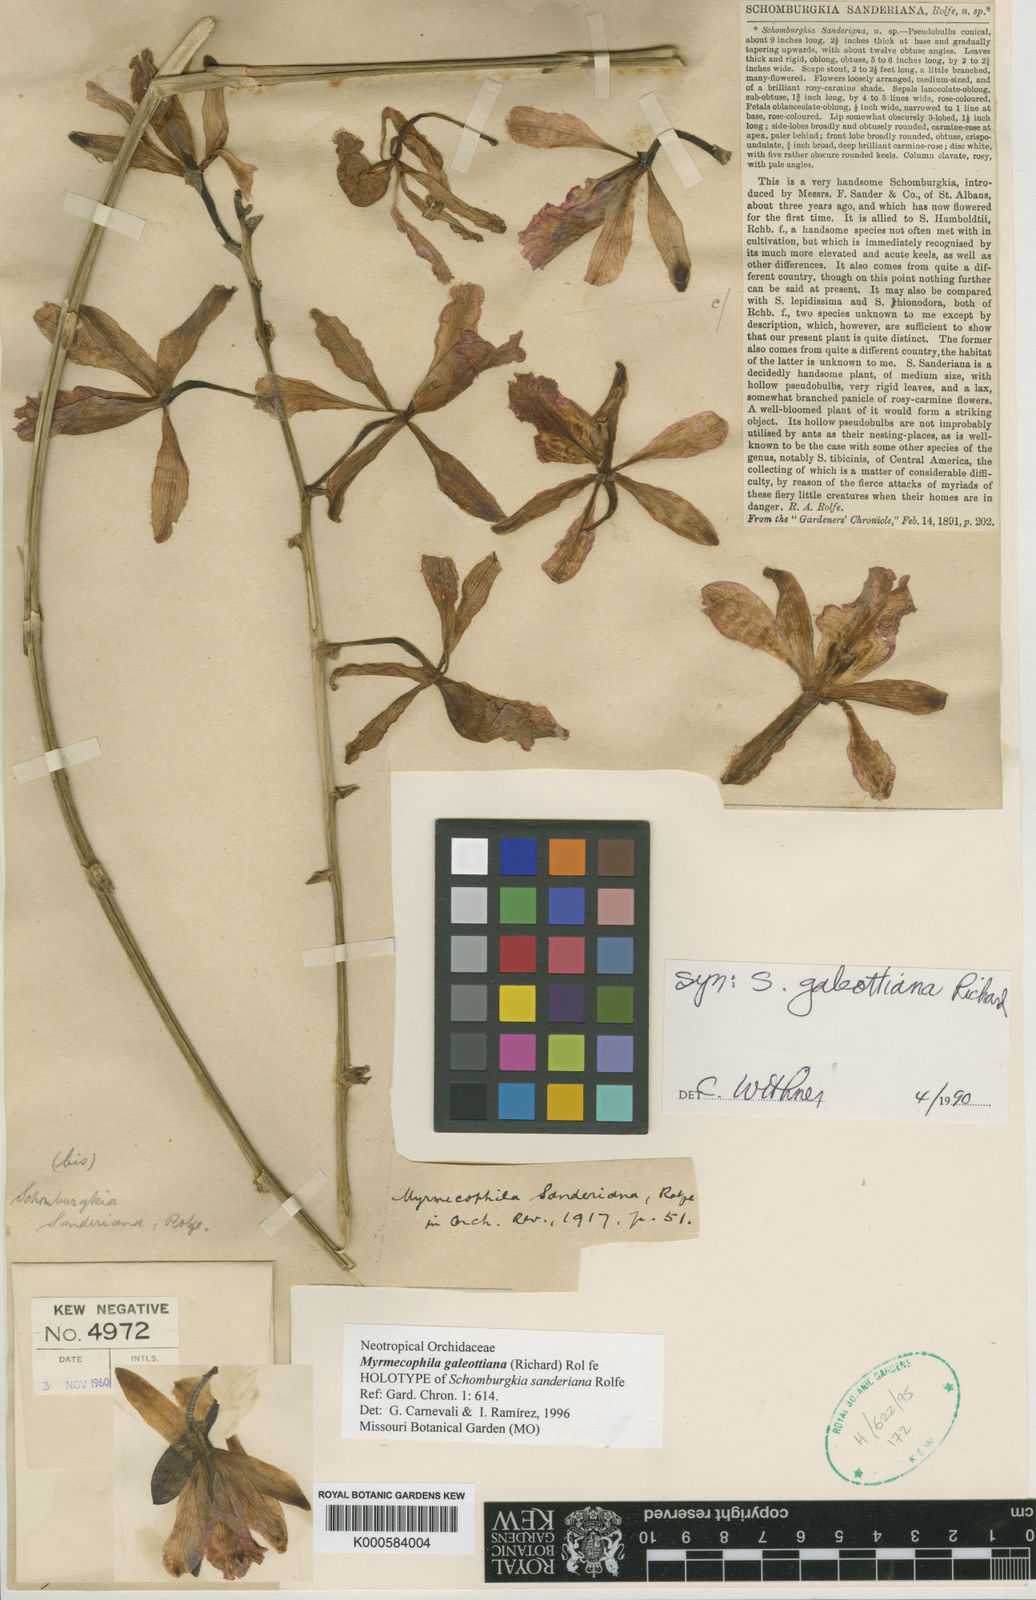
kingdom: Plantae
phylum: Tracheophyta
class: Liliopsida
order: Asparagales
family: Orchidaceae
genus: Myrmecophila
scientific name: Myrmecophila galeottiana
